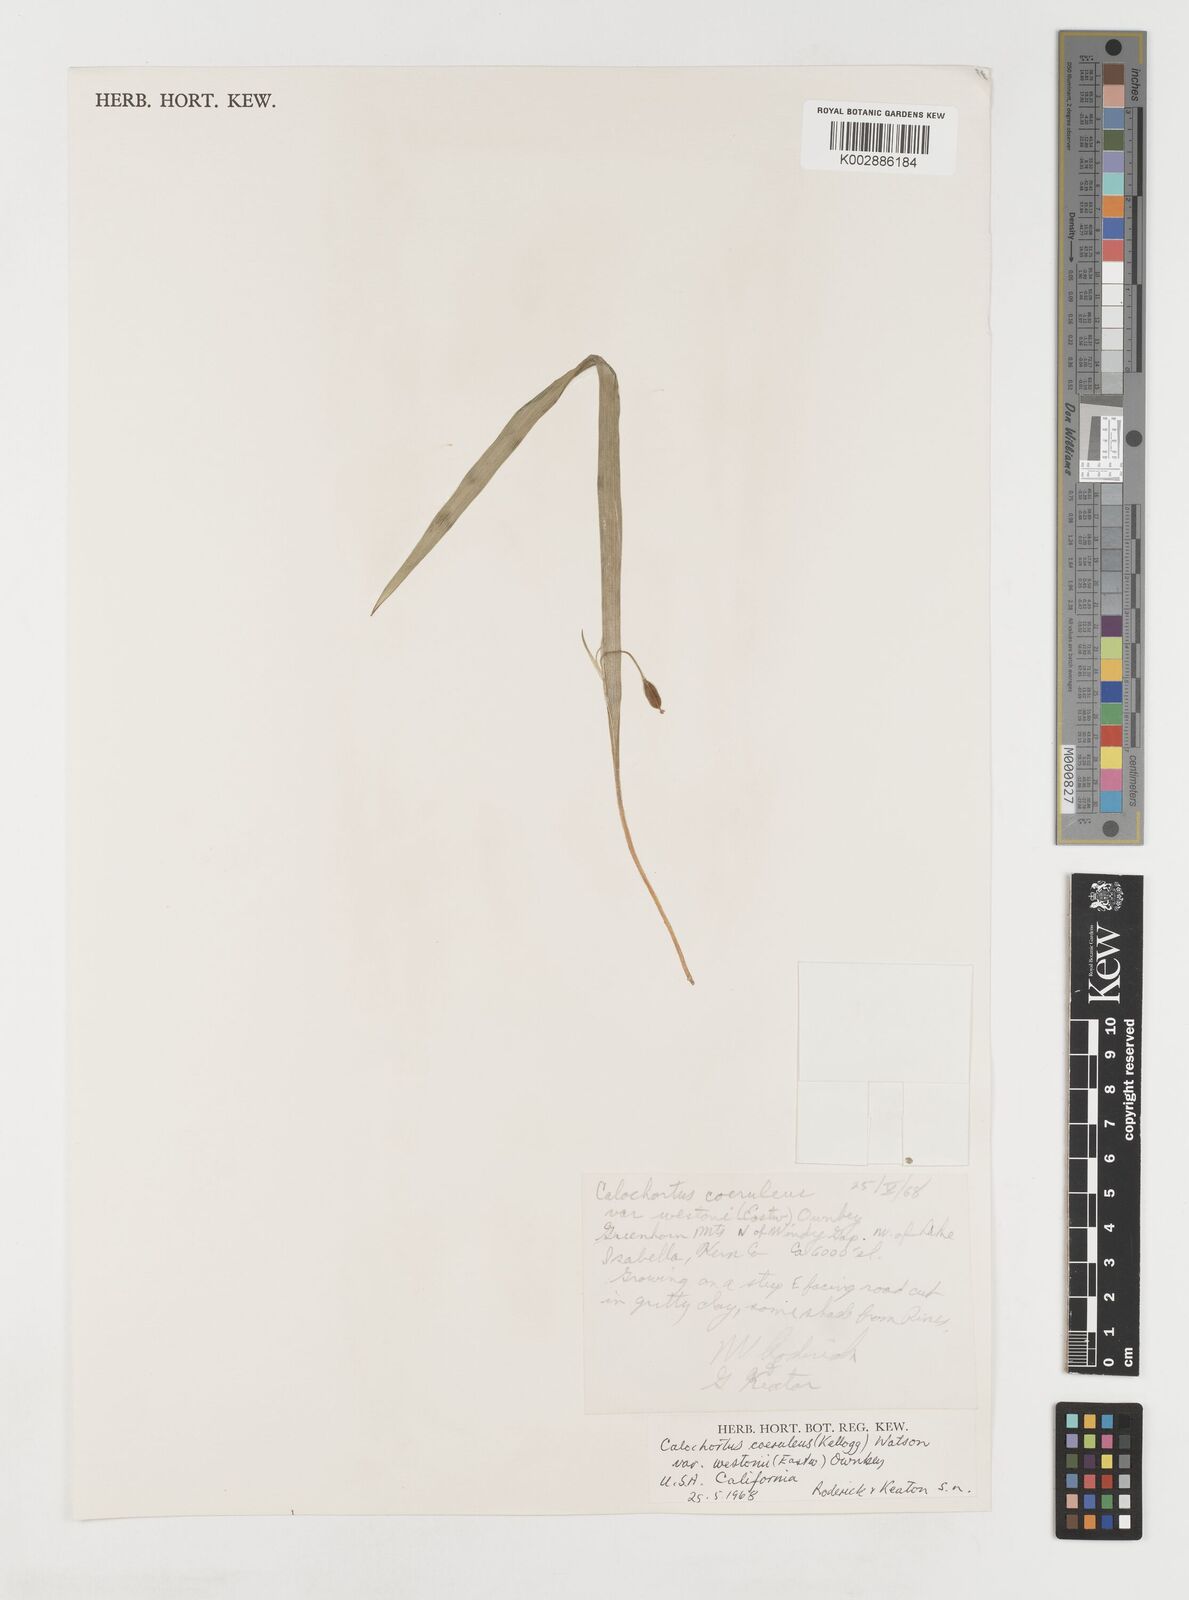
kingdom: Plantae
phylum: Tracheophyta
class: Liliopsida
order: Liliales
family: Liliaceae
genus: Calochortus
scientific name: Calochortus coeruleus
